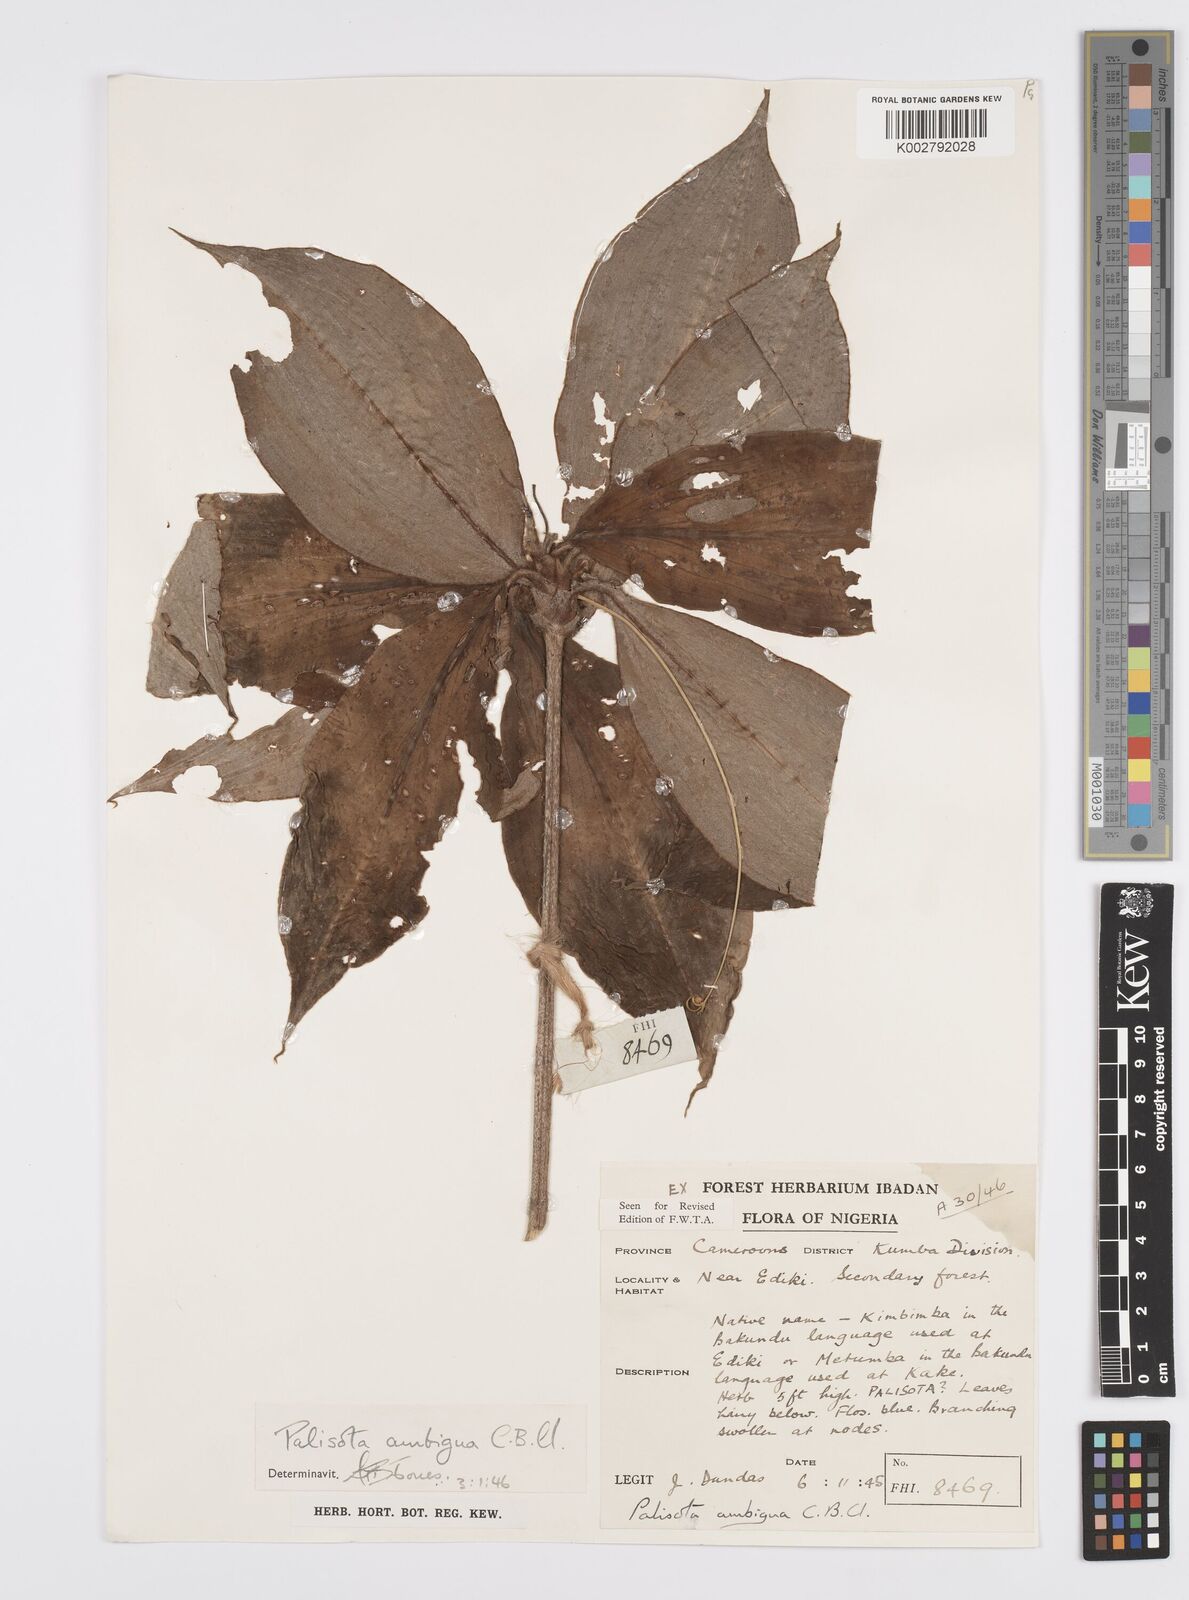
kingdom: Plantae
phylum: Tracheophyta
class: Liliopsida
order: Commelinales
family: Commelinaceae
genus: Palisota
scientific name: Palisota ambigua
